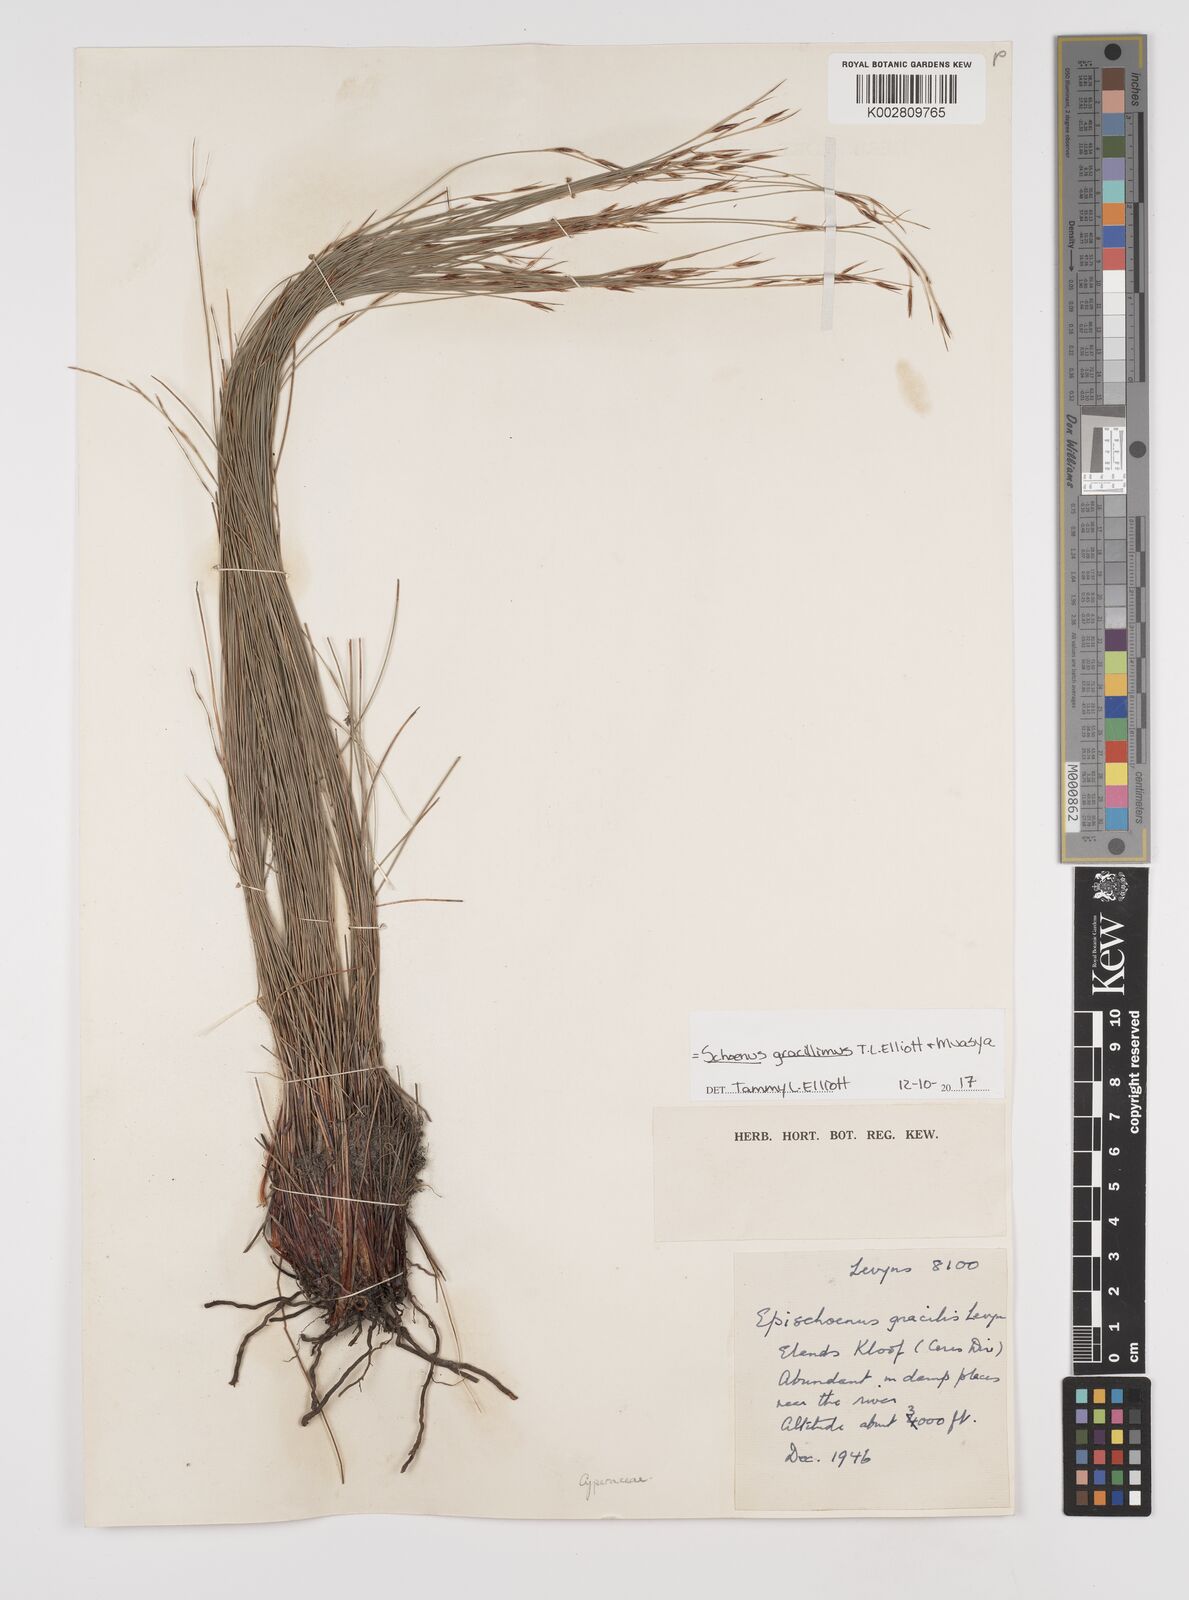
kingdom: Plantae
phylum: Tracheophyta
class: Liliopsida
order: Poales
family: Cyperaceae
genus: Rhynchospora
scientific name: Rhynchospora racemosa
